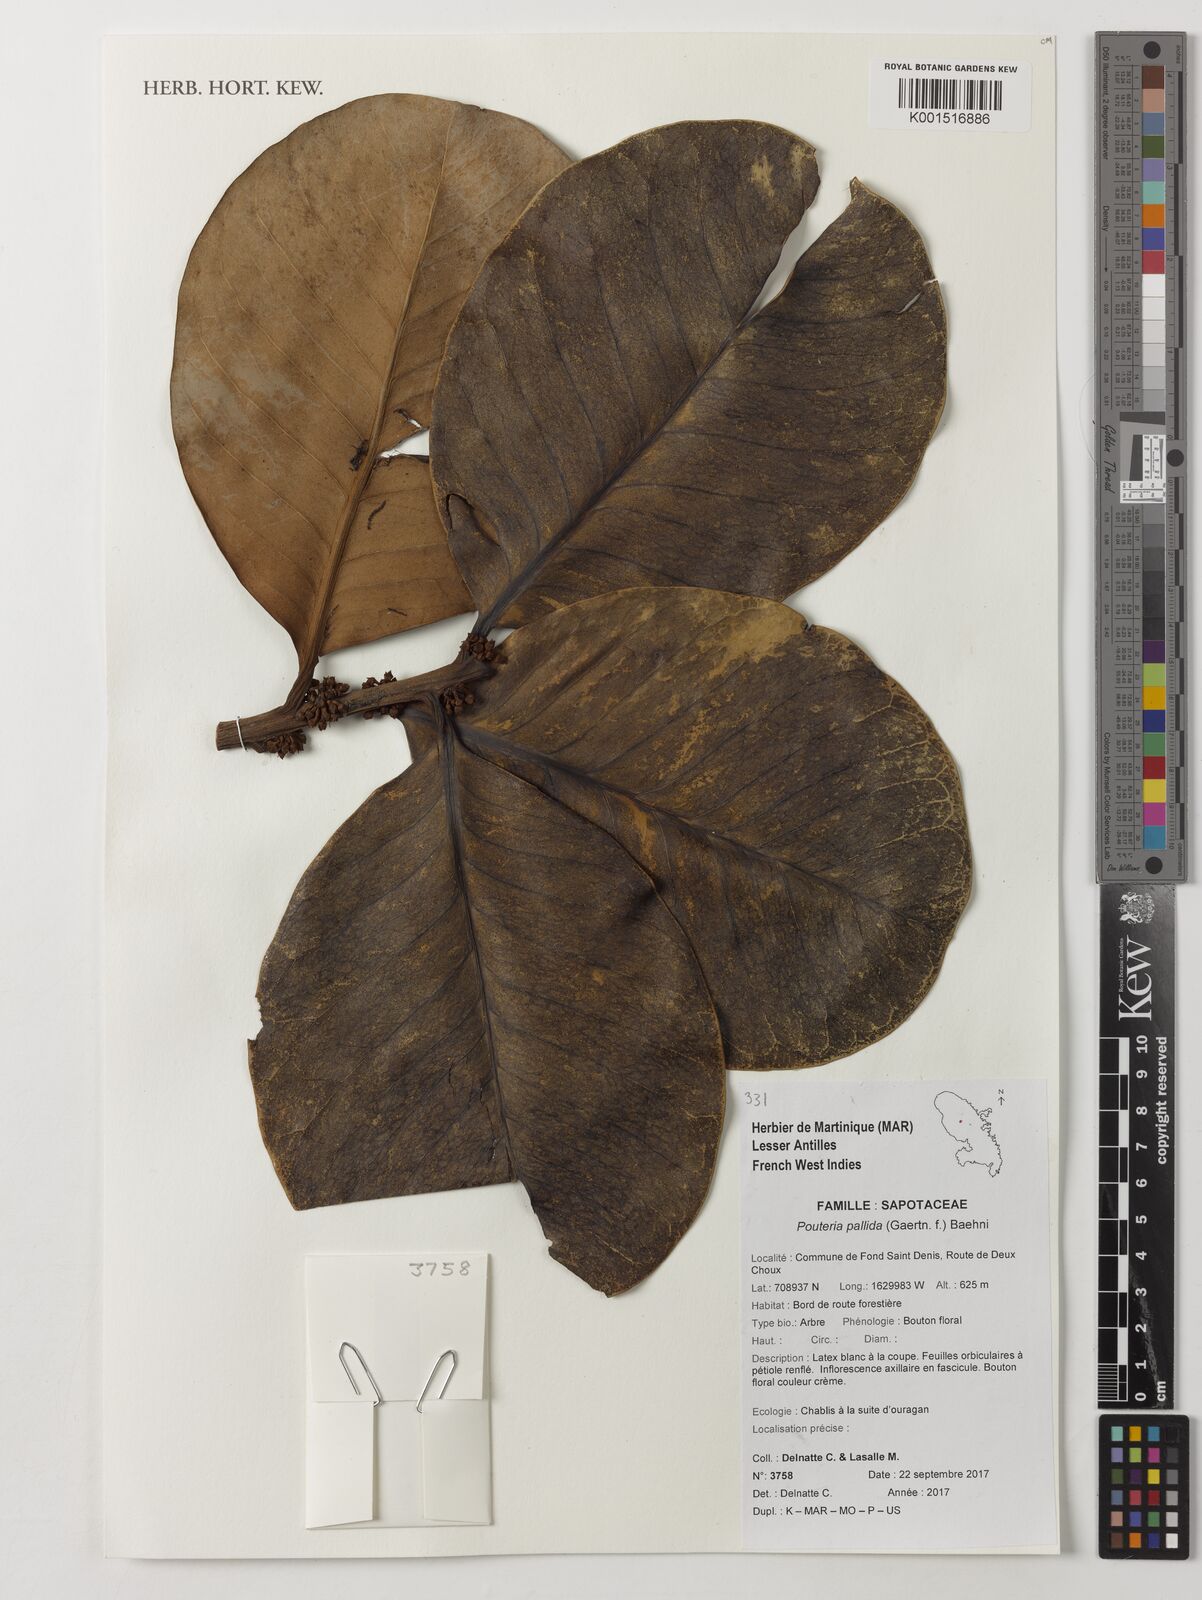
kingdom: Plantae
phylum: Tracheophyta
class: Magnoliopsida
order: Ericales
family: Sapotaceae
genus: Pouteria
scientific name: Pouteria pallida
